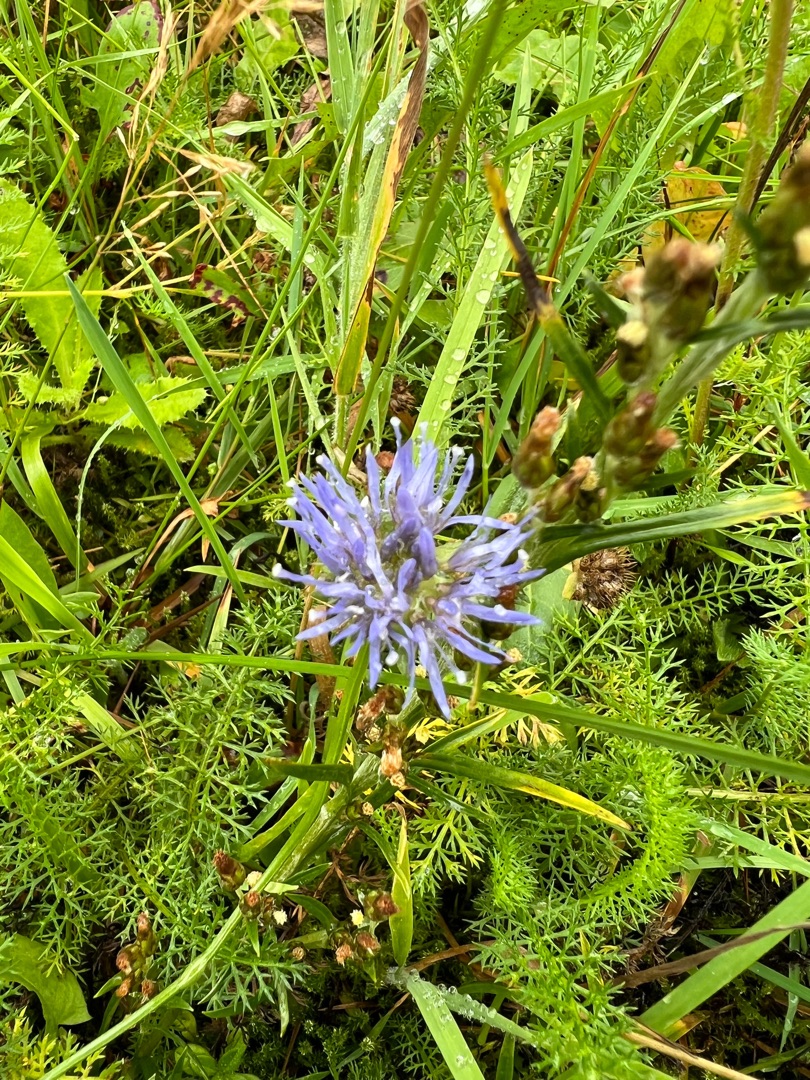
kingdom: Plantae
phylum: Tracheophyta
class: Magnoliopsida
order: Asterales
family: Campanulaceae
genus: Jasione
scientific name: Jasione montana
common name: Blåmunke
